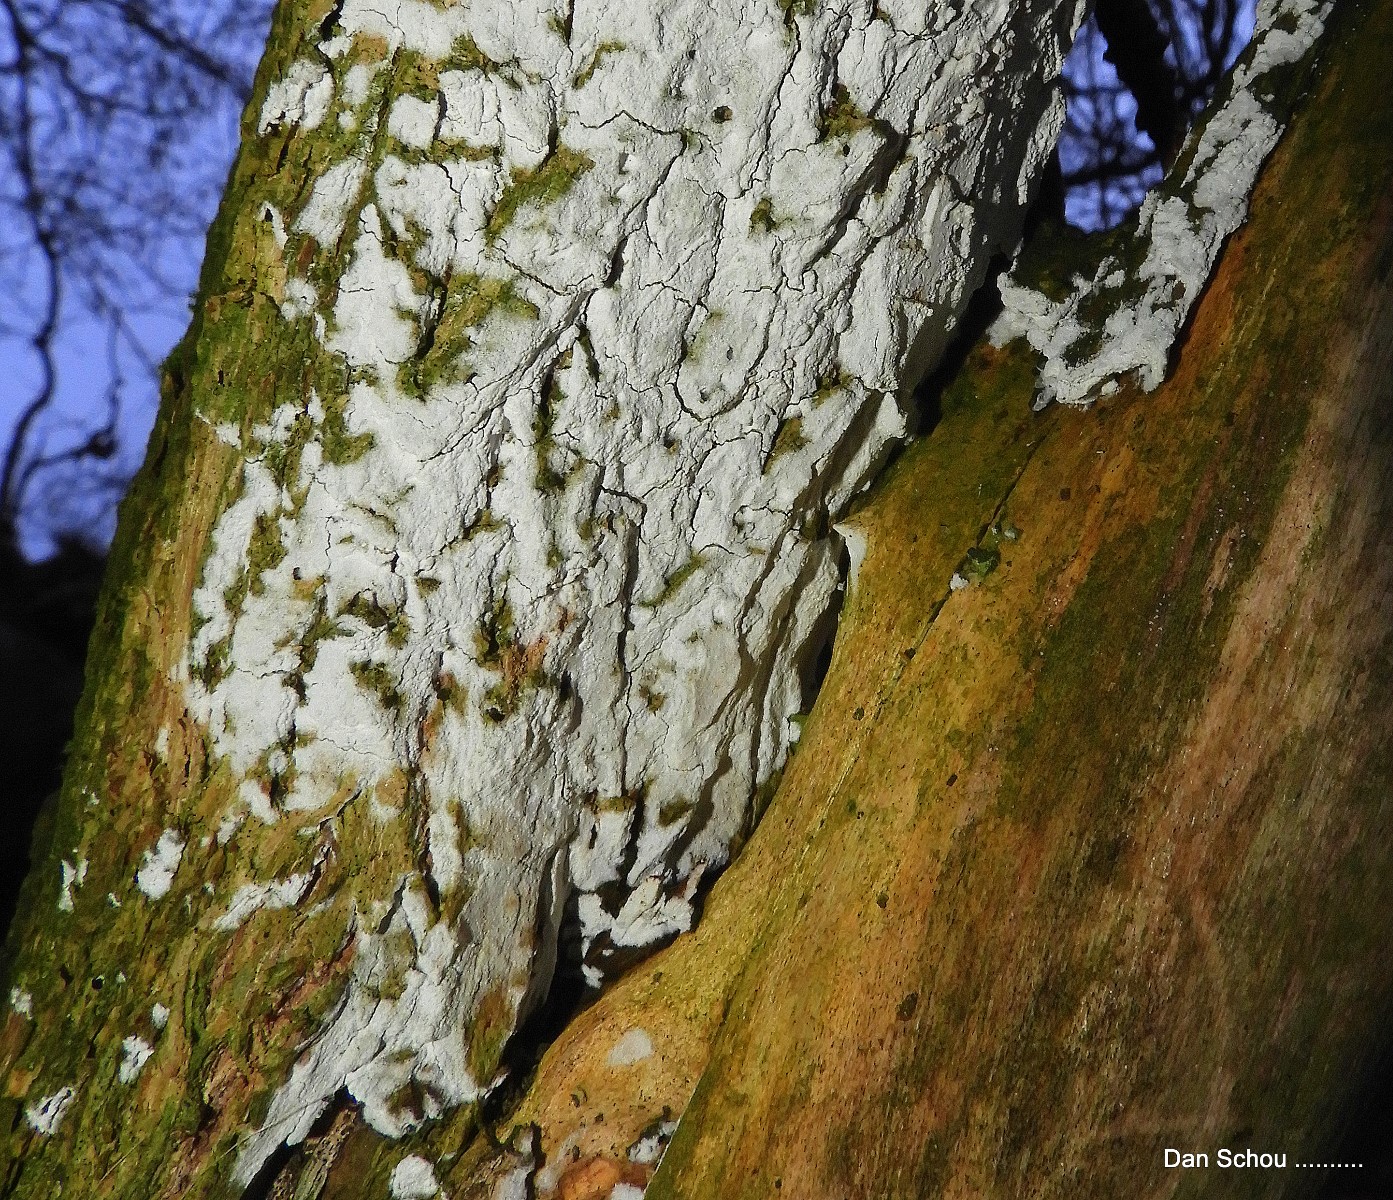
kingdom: Fungi
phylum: Basidiomycota
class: Agaricomycetes
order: Corticiales
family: Corticiaceae
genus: Lyomyces
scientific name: Lyomyces sambuci
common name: almindelig hyldehinde
